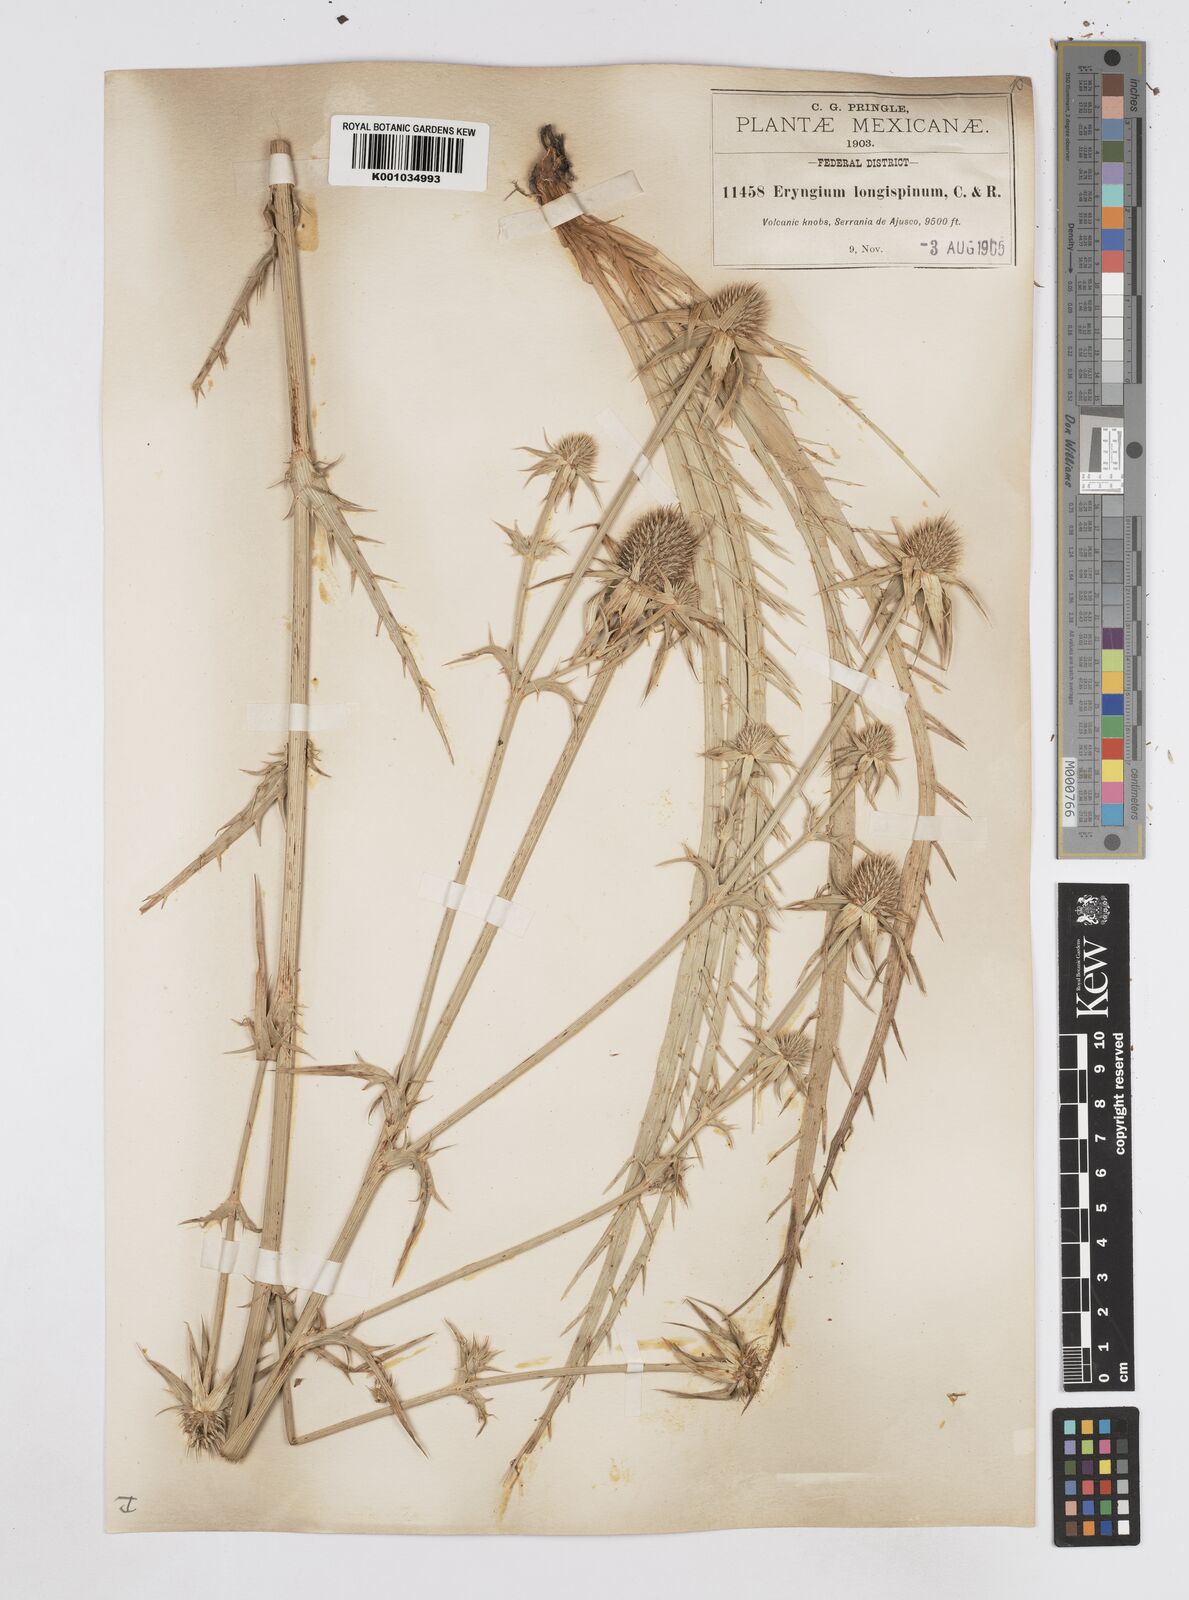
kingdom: Plantae
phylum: Tracheophyta
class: Magnoliopsida
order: Apiales
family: Apiaceae
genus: Eryngium
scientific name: Eryngium pectinatum
